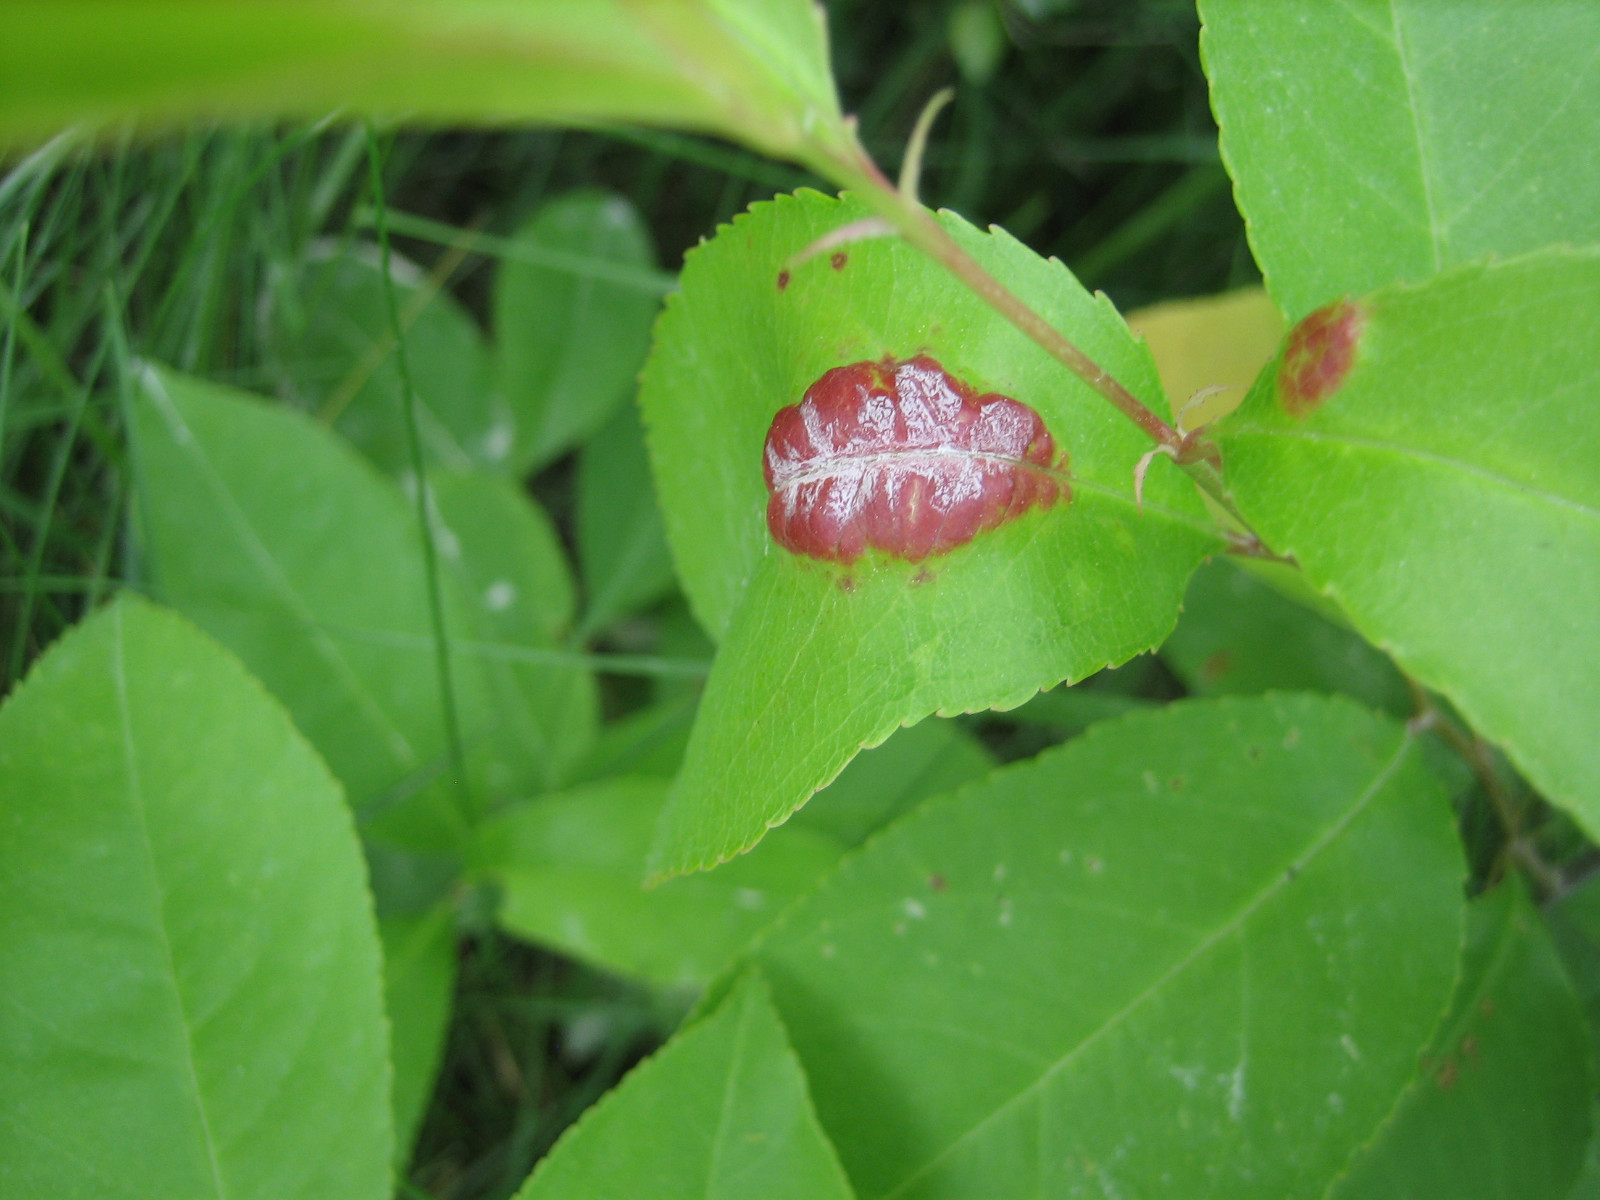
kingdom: Fungi
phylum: Ascomycota
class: Taphrinomycetes
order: Taphrinales
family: Taphrinaceae
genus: Taphrina
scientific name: Taphrina farlowii
